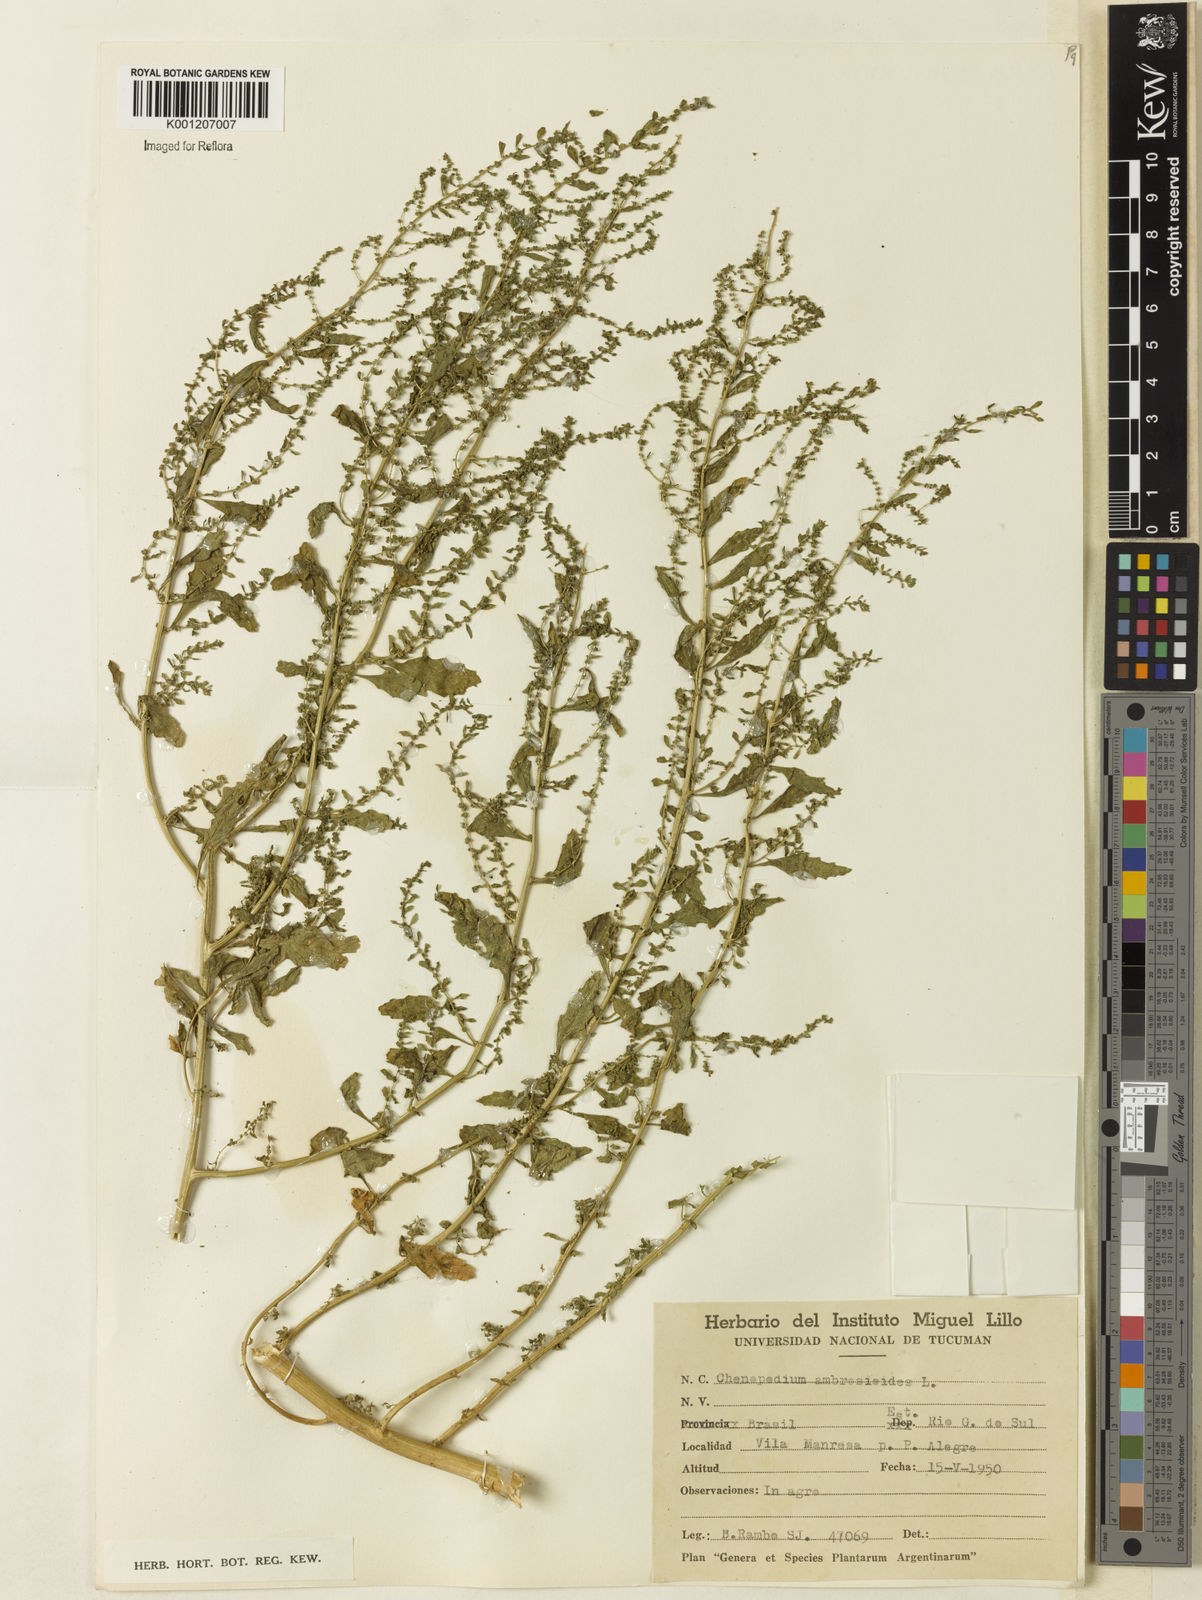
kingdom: Plantae
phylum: Tracheophyta
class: Magnoliopsida
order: Caryophyllales
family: Amaranthaceae
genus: Dysphania
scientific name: Dysphania ambrosioides
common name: Wormseed
